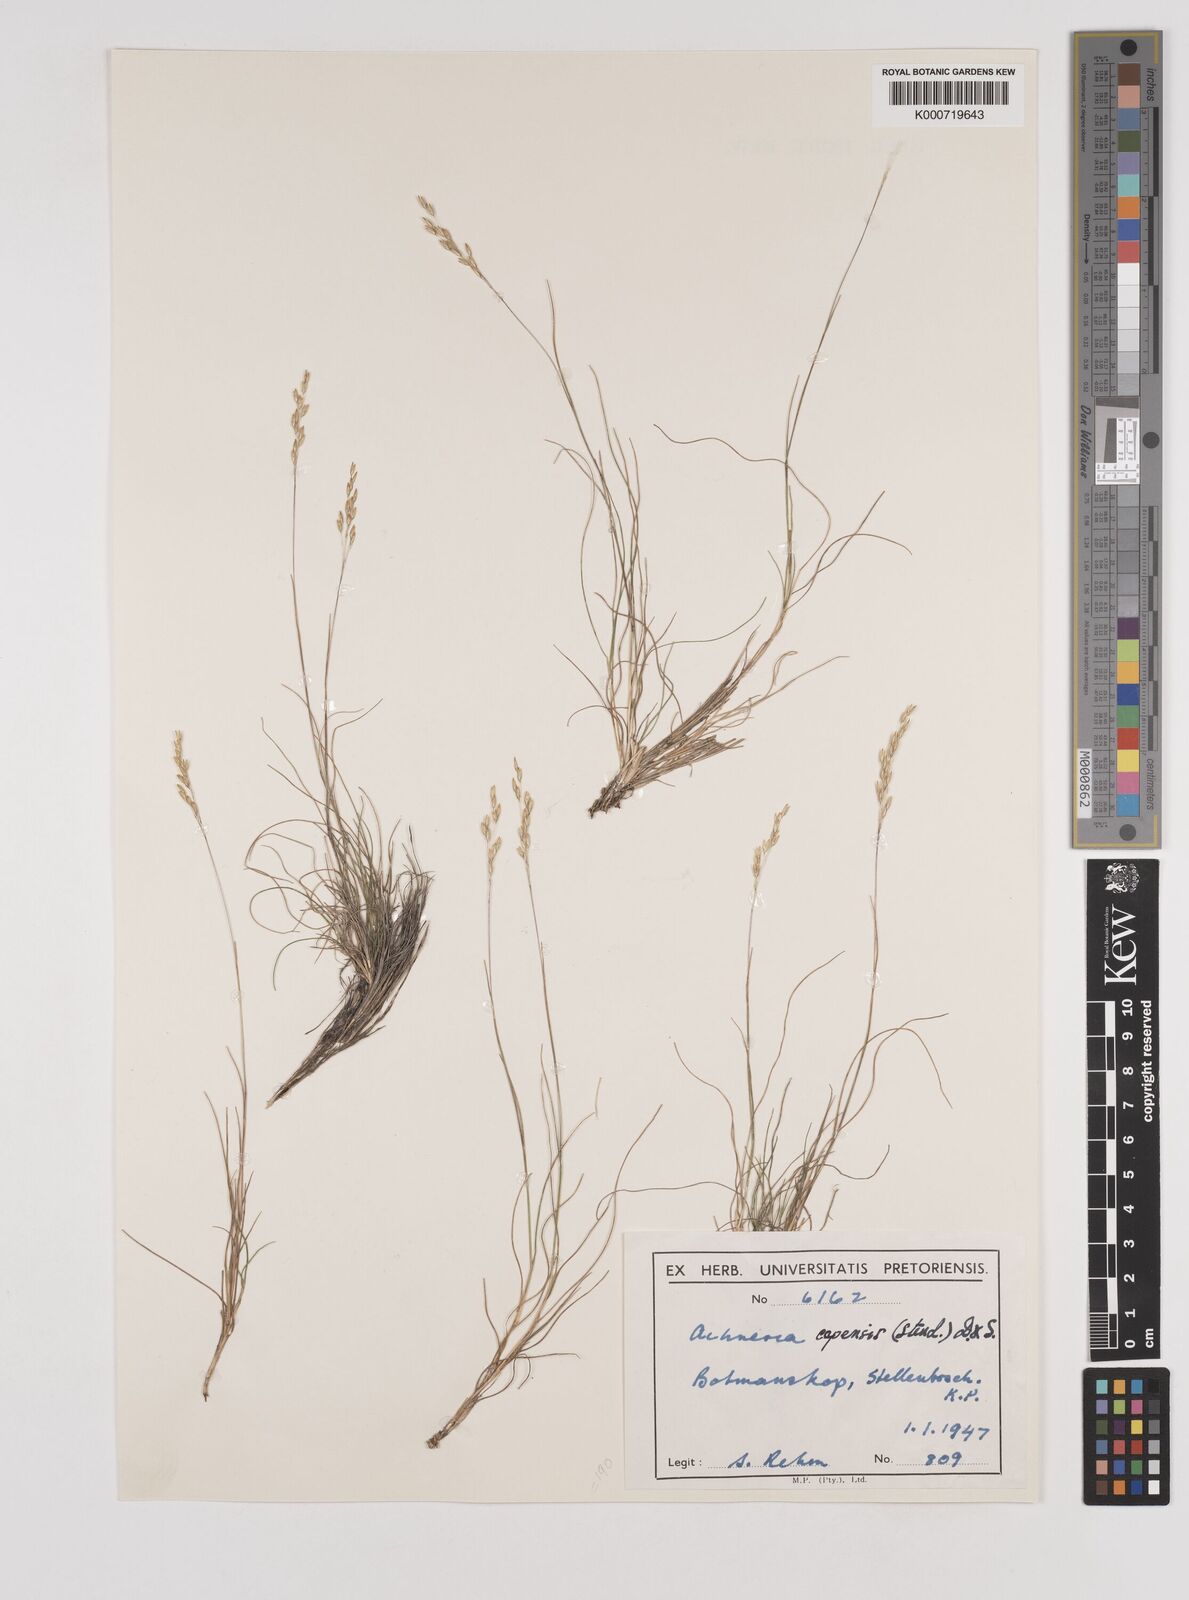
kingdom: Plantae
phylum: Tracheophyta
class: Liliopsida
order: Poales
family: Poaceae
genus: Pentameris
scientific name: Pentameris malouinensis
